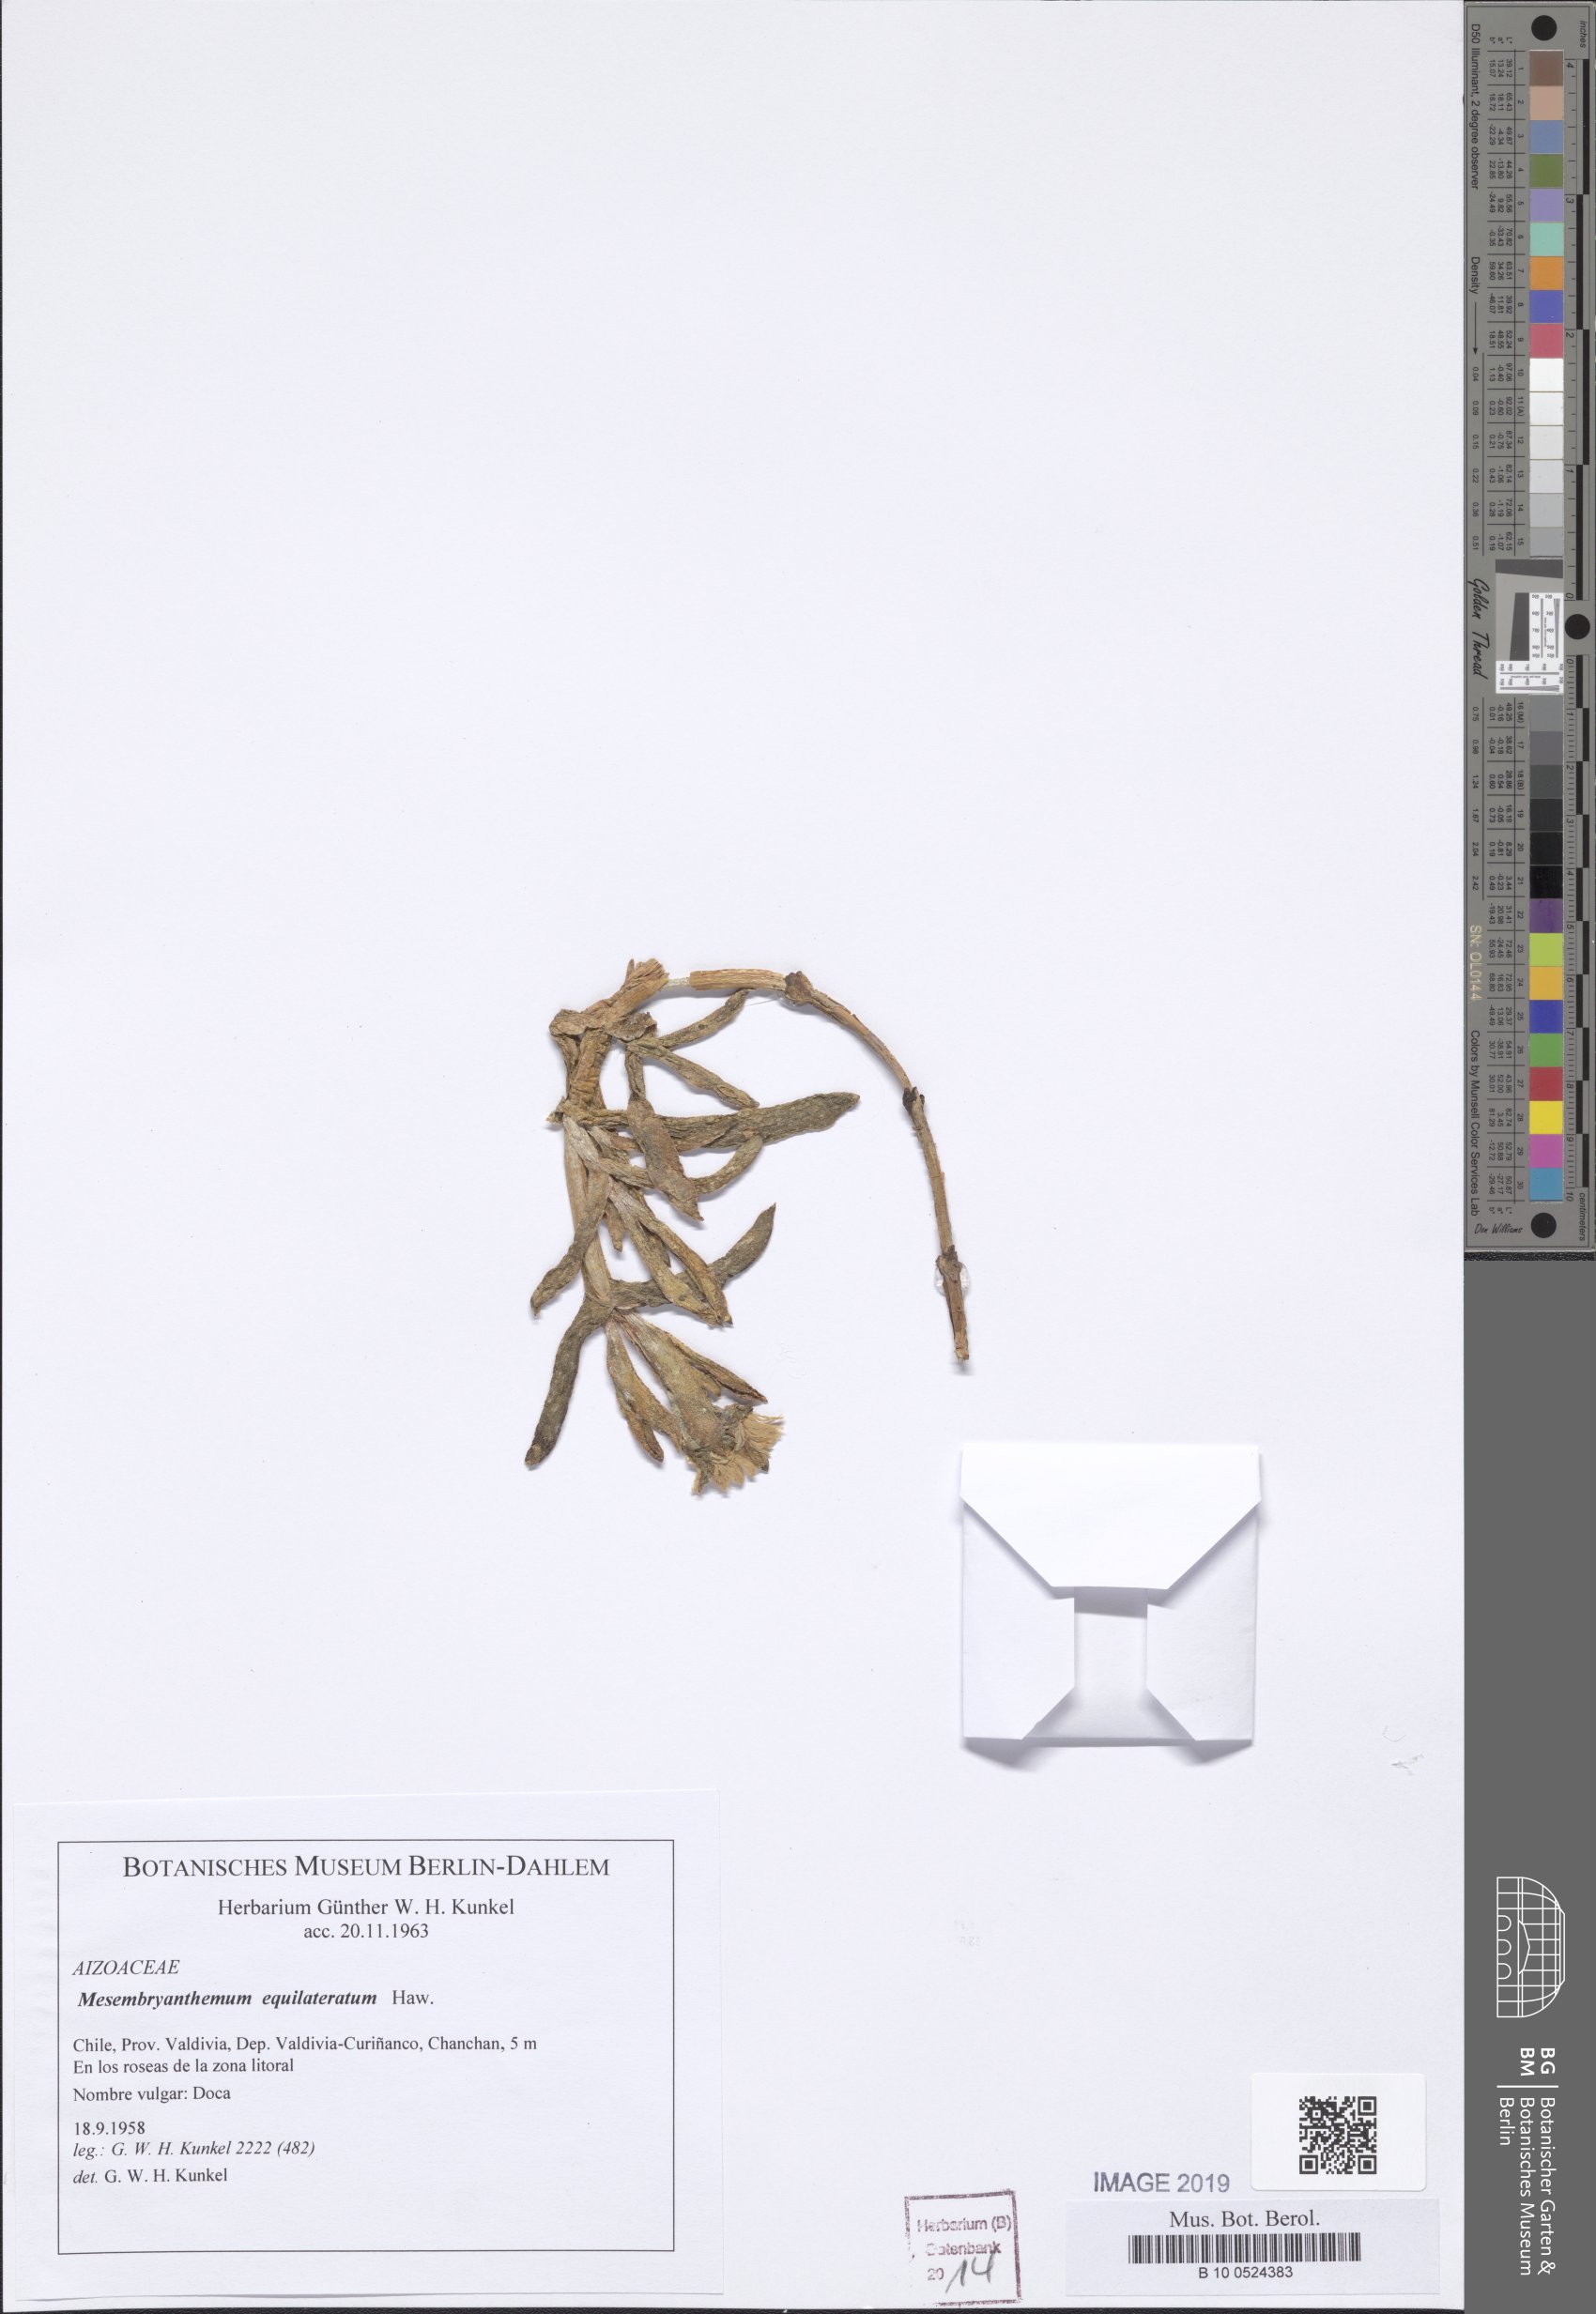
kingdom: Plantae
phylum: Tracheophyta
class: Magnoliopsida
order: Caryophyllales
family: Aizoaceae
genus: Carpobrotus
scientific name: Carpobrotus aequilaterus
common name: Angled pigface
